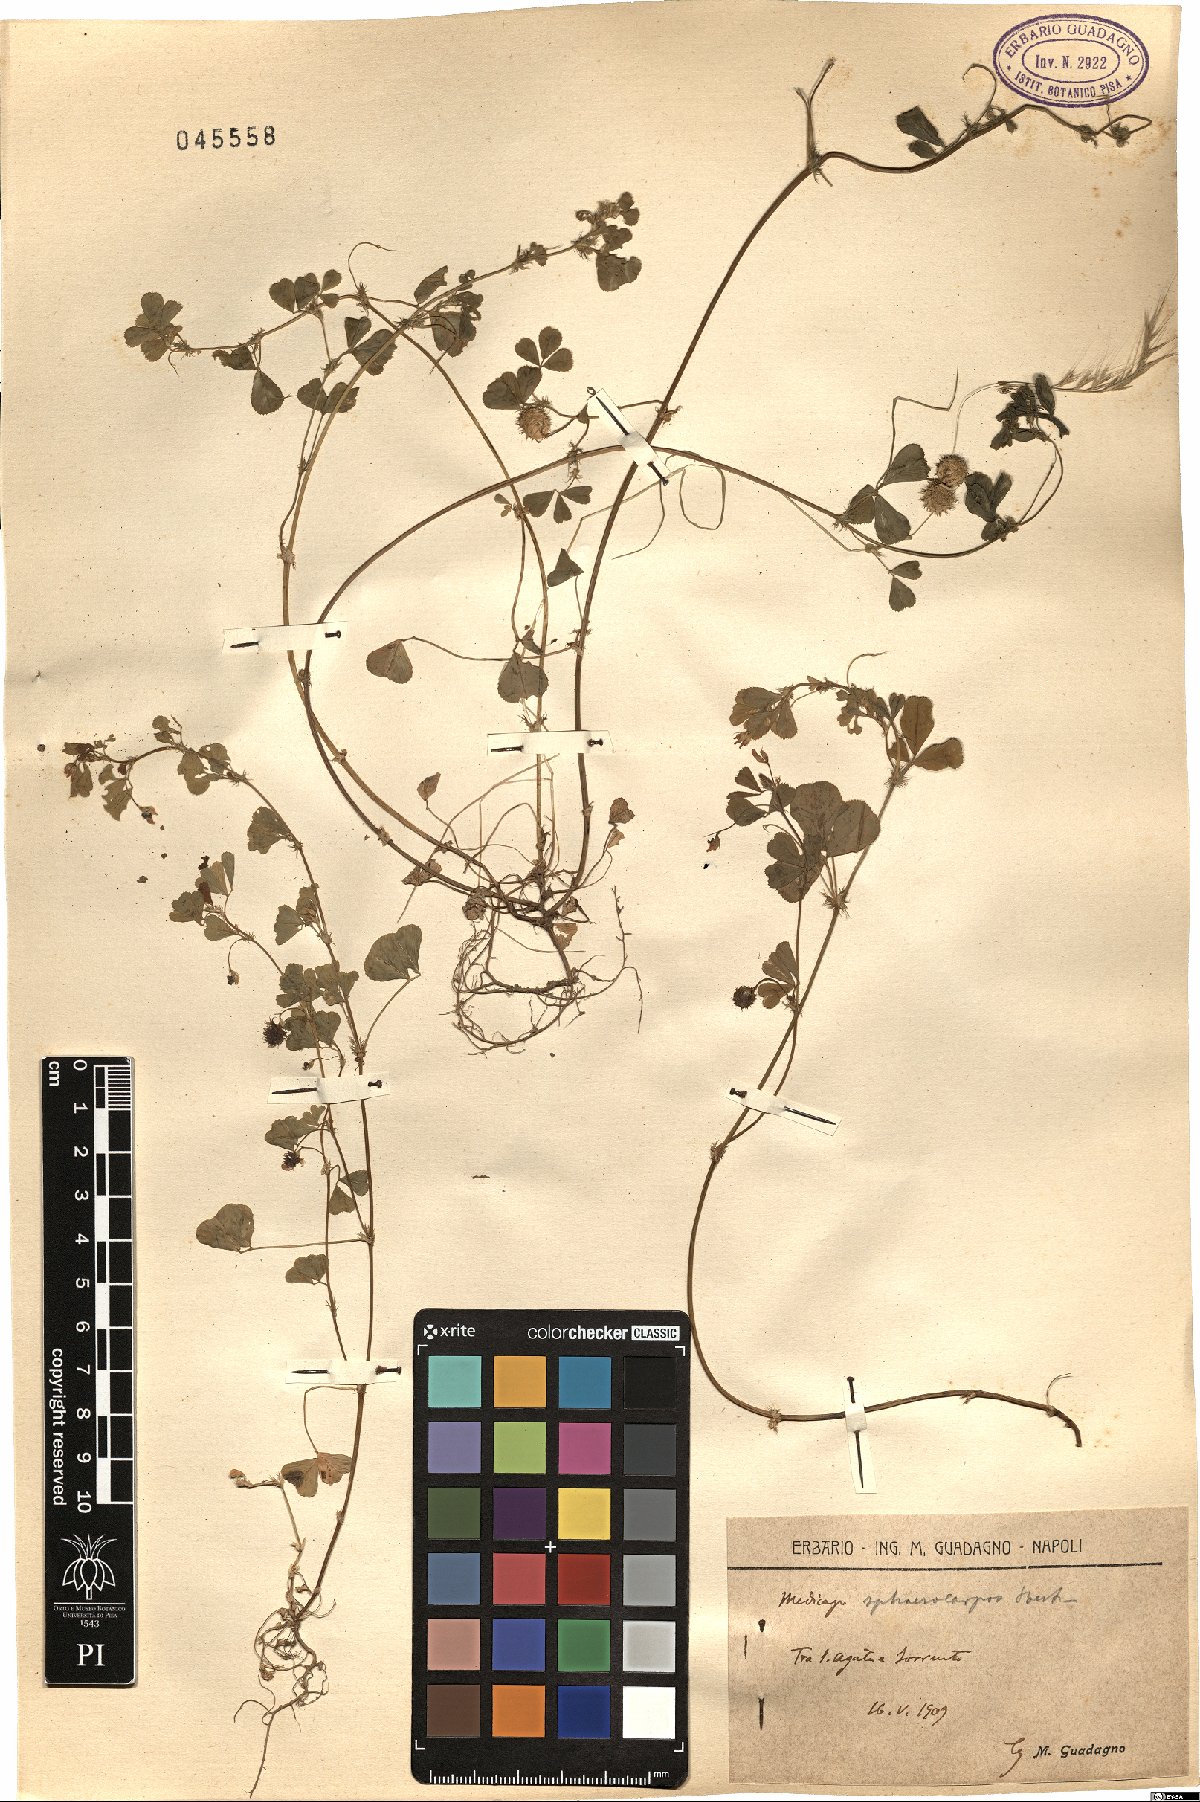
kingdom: Plantae
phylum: Tracheophyta
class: Magnoliopsida
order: Fabales
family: Fabaceae
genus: Medicago
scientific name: Medicago sphaerocarpos
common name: Sphere medic
